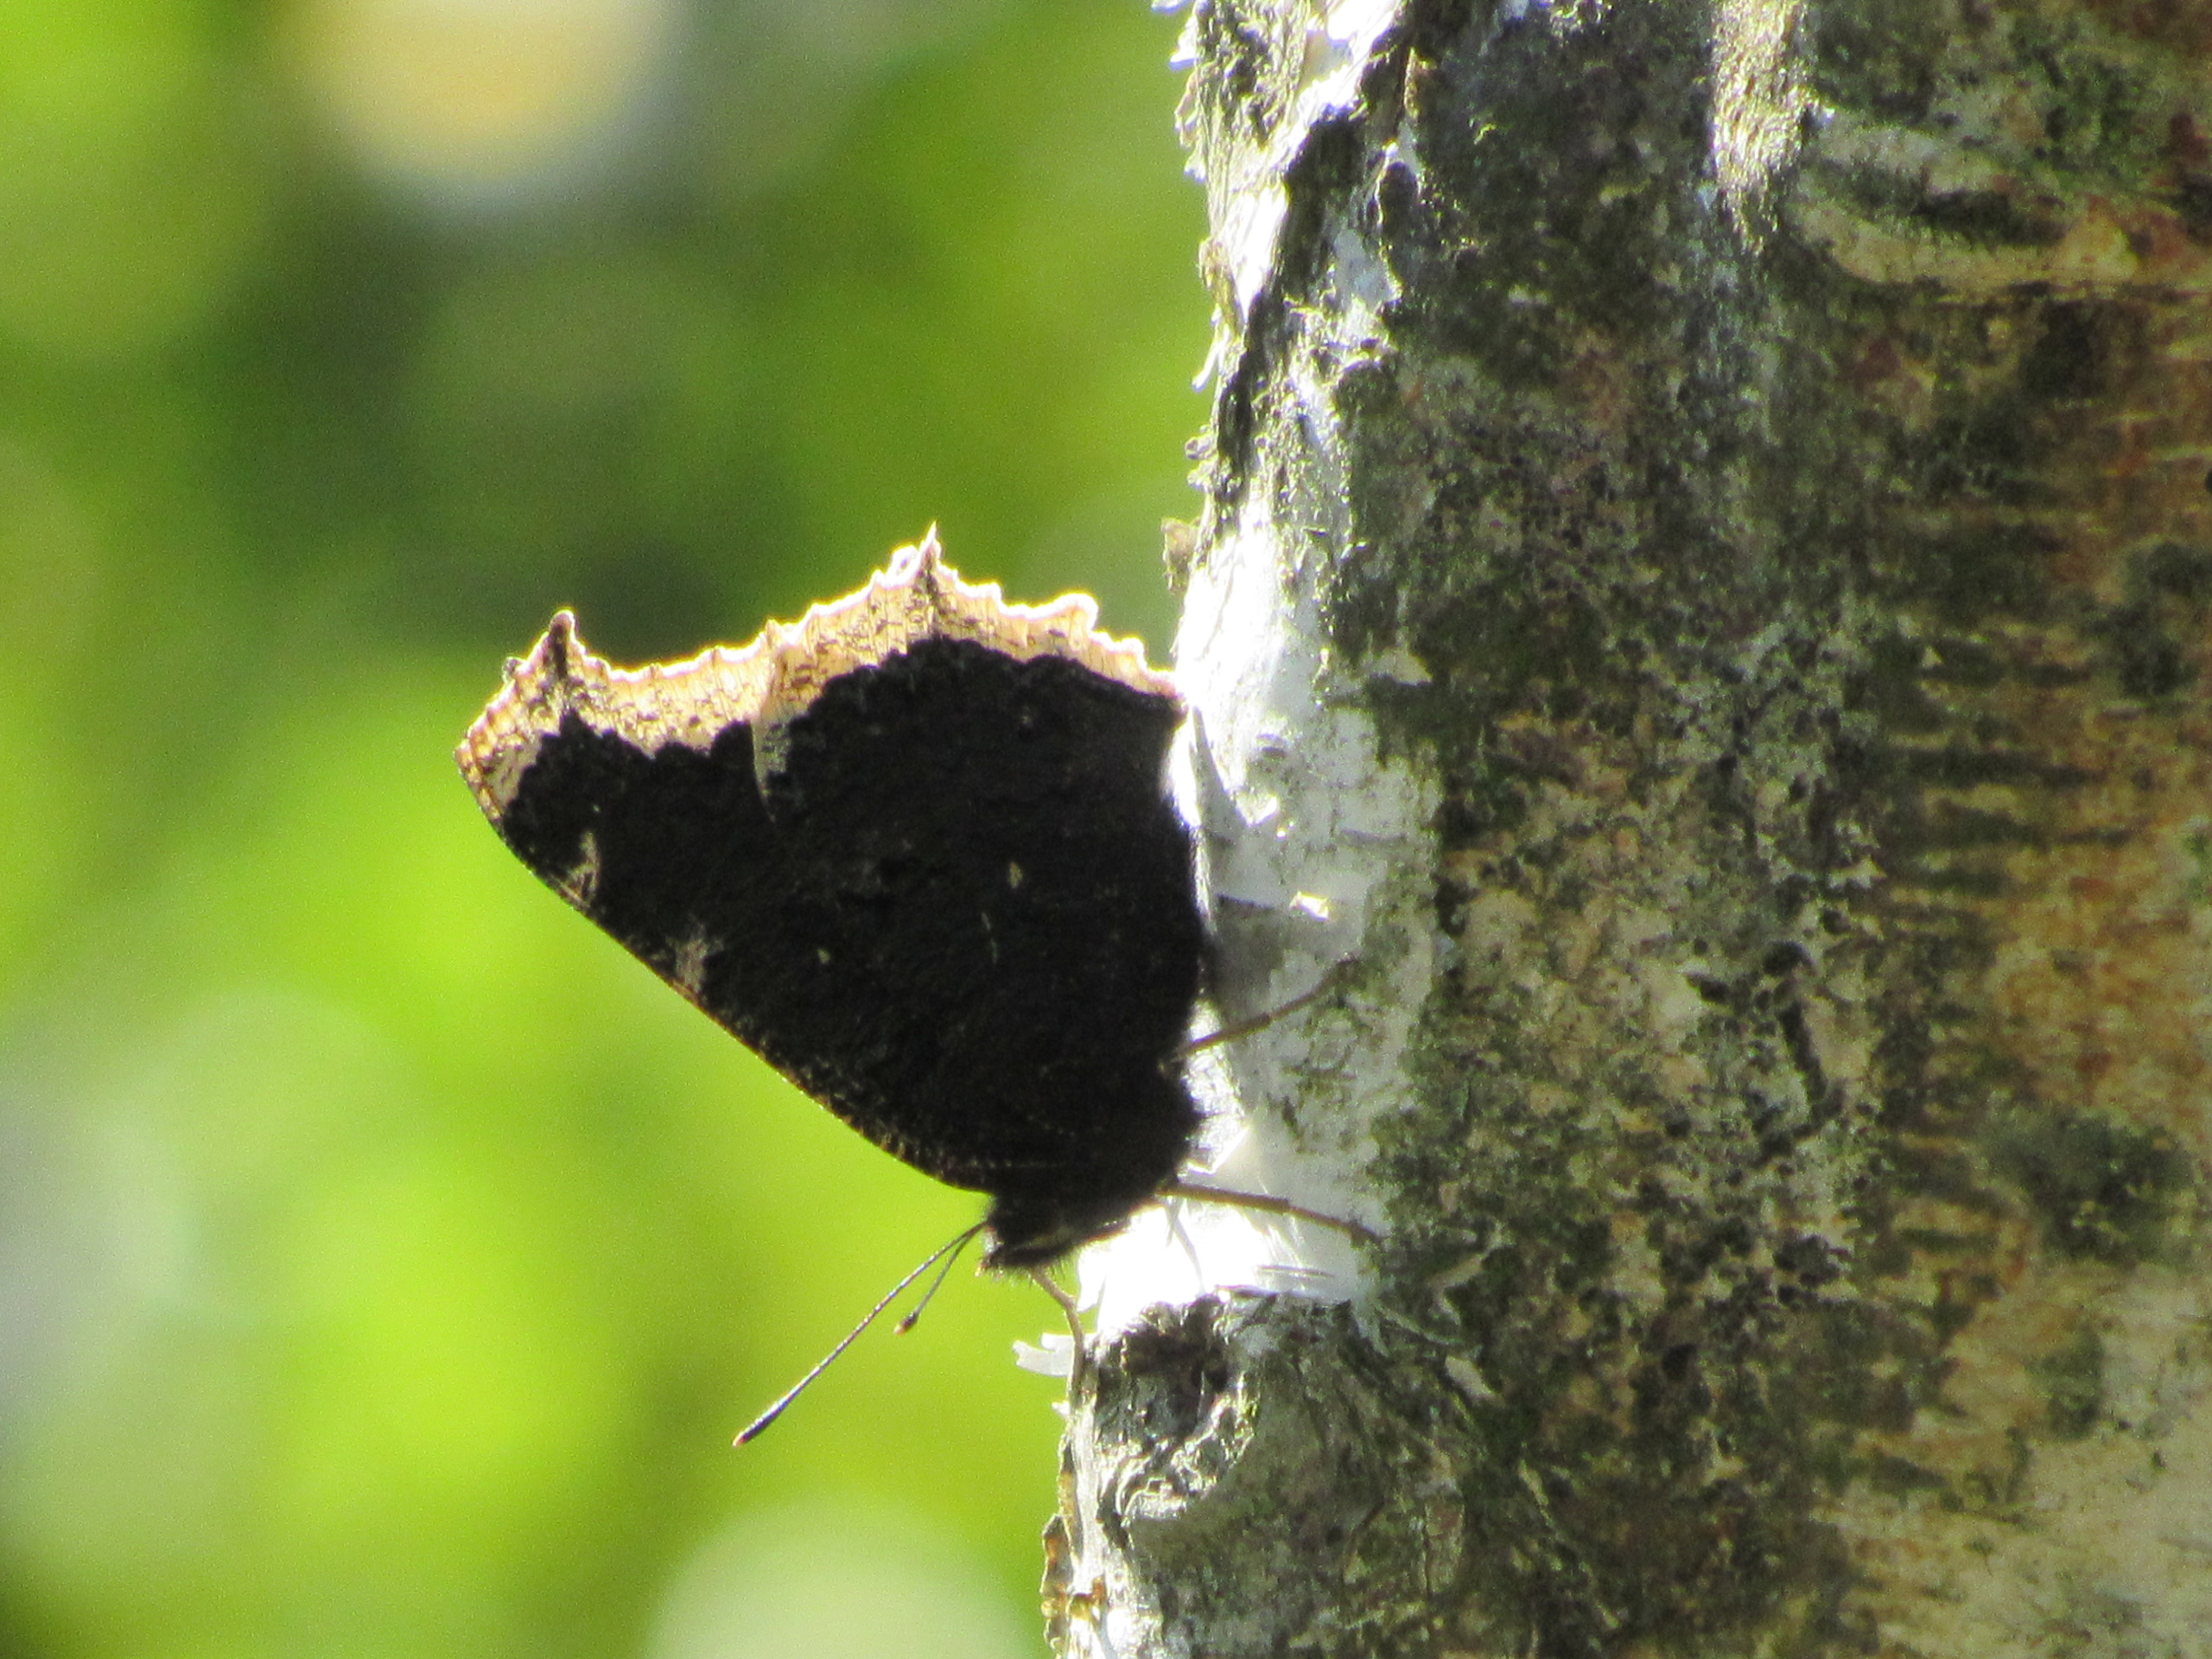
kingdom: Animalia
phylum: Arthropoda
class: Insecta
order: Lepidoptera
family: Nymphalidae
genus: Nymphalis
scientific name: Nymphalis antiopa
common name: Sørgekåbe
